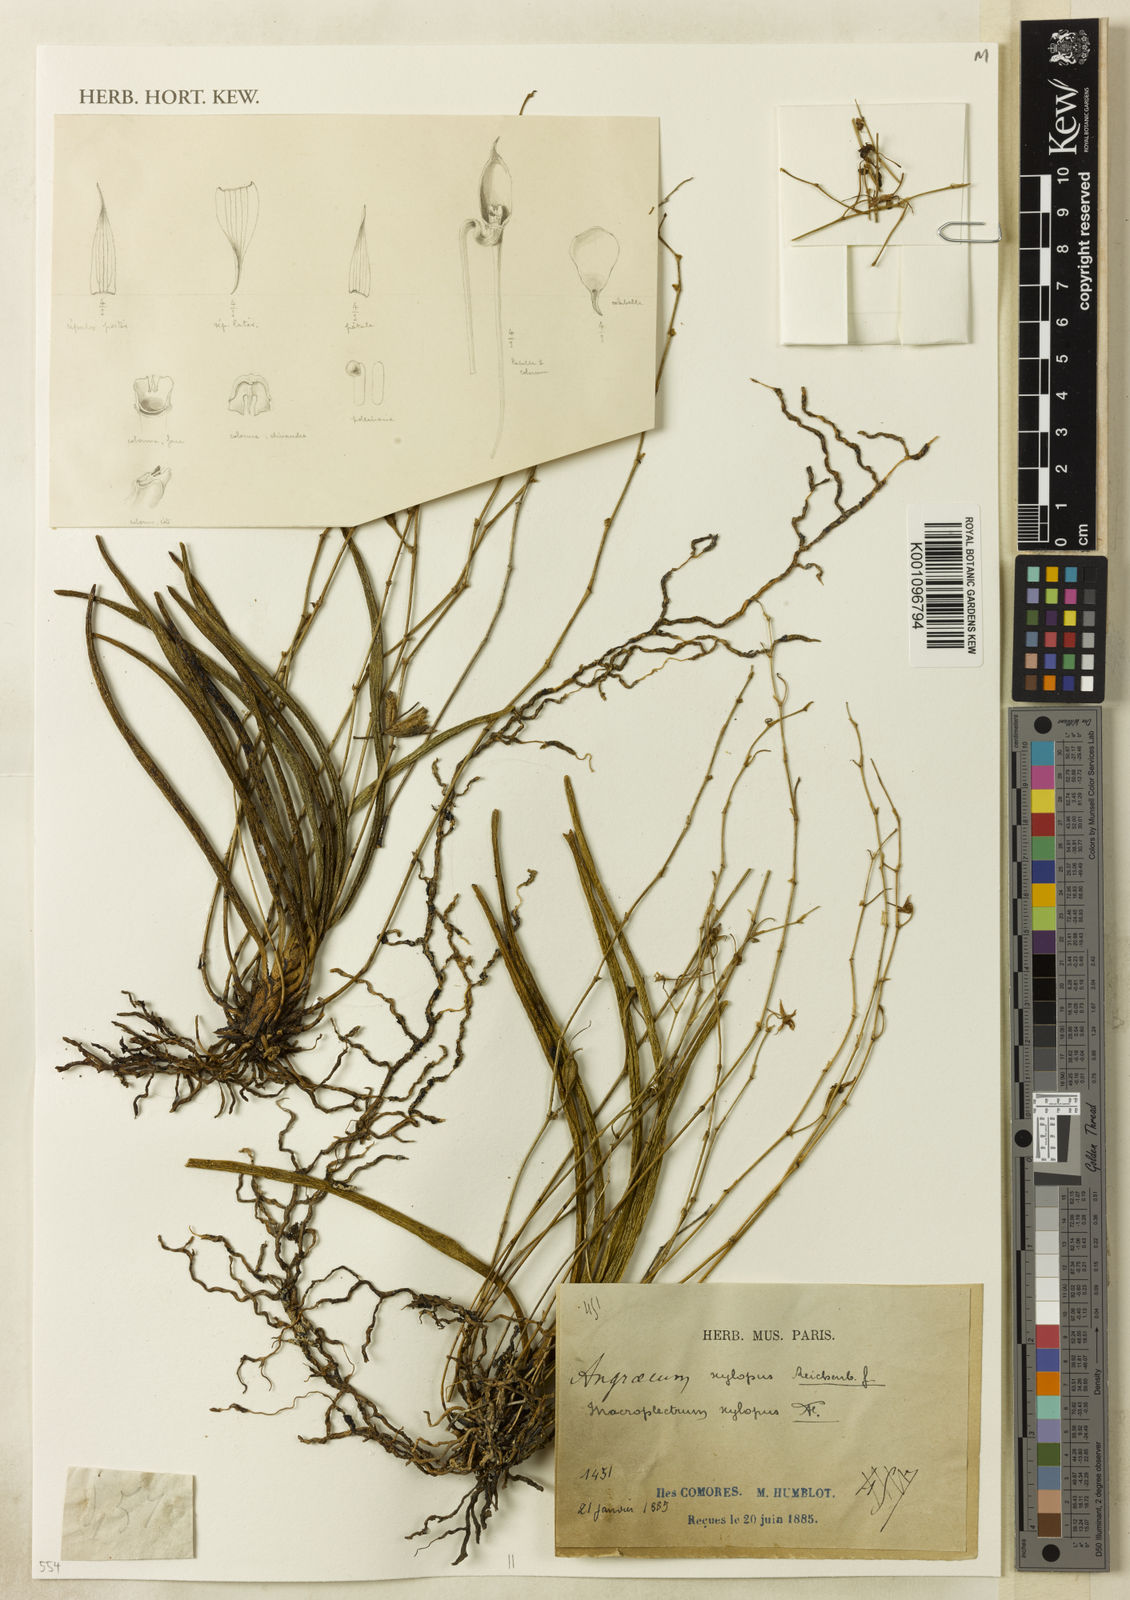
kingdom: Plantae
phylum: Tracheophyta
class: Liliopsida
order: Asparagales
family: Orchidaceae
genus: Angraecum
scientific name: Angraecum xylopus
